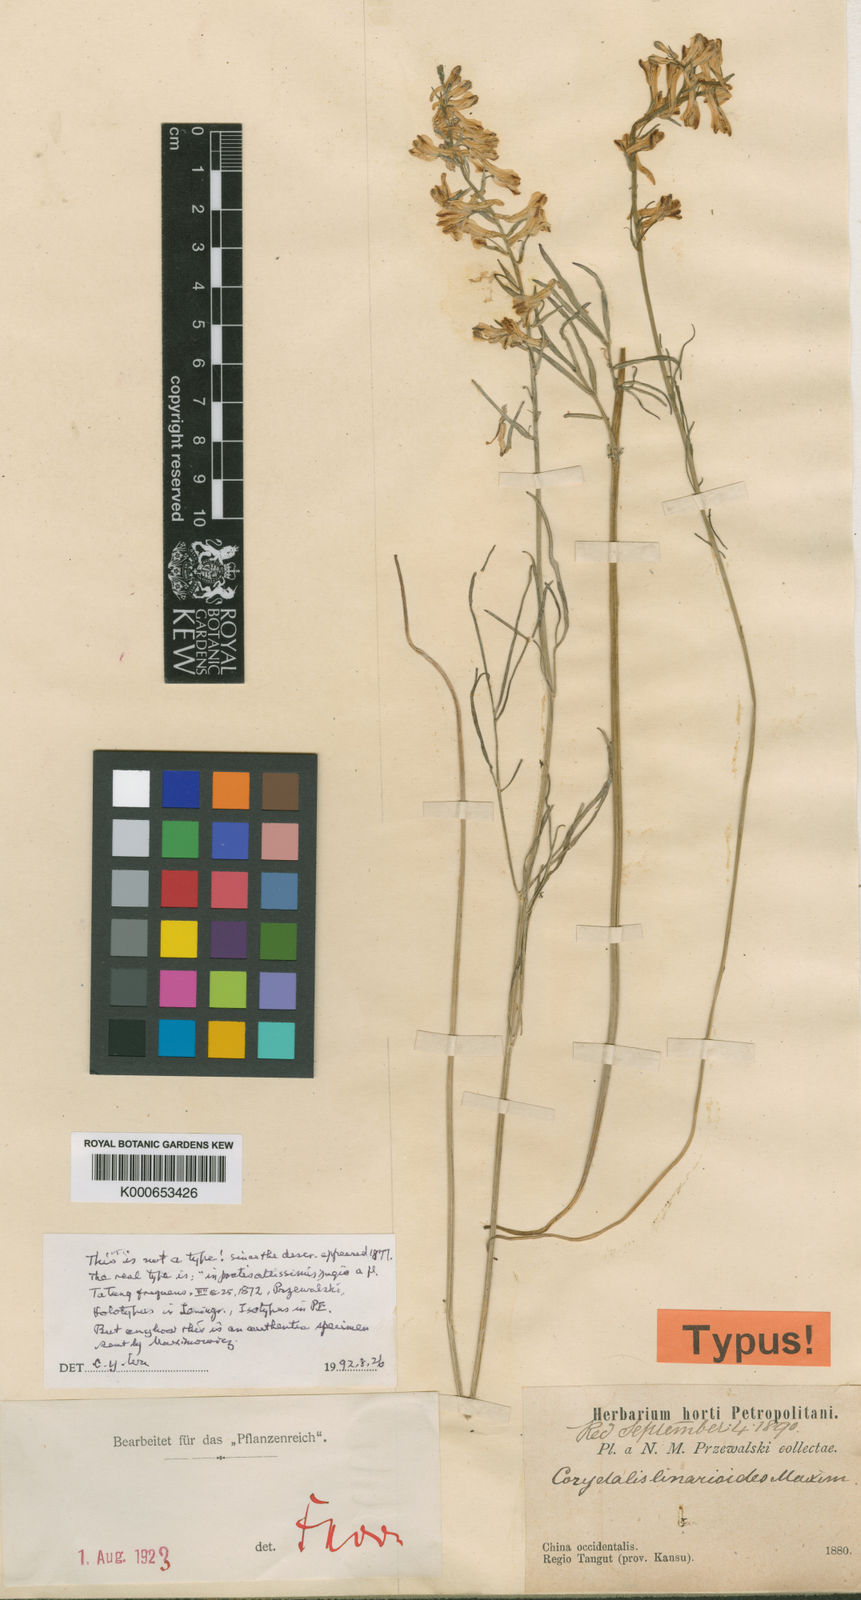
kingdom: Plantae
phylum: Tracheophyta
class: Magnoliopsida
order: Ranunculales
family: Papaveraceae
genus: Corydalis
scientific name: Corydalis linarioides
